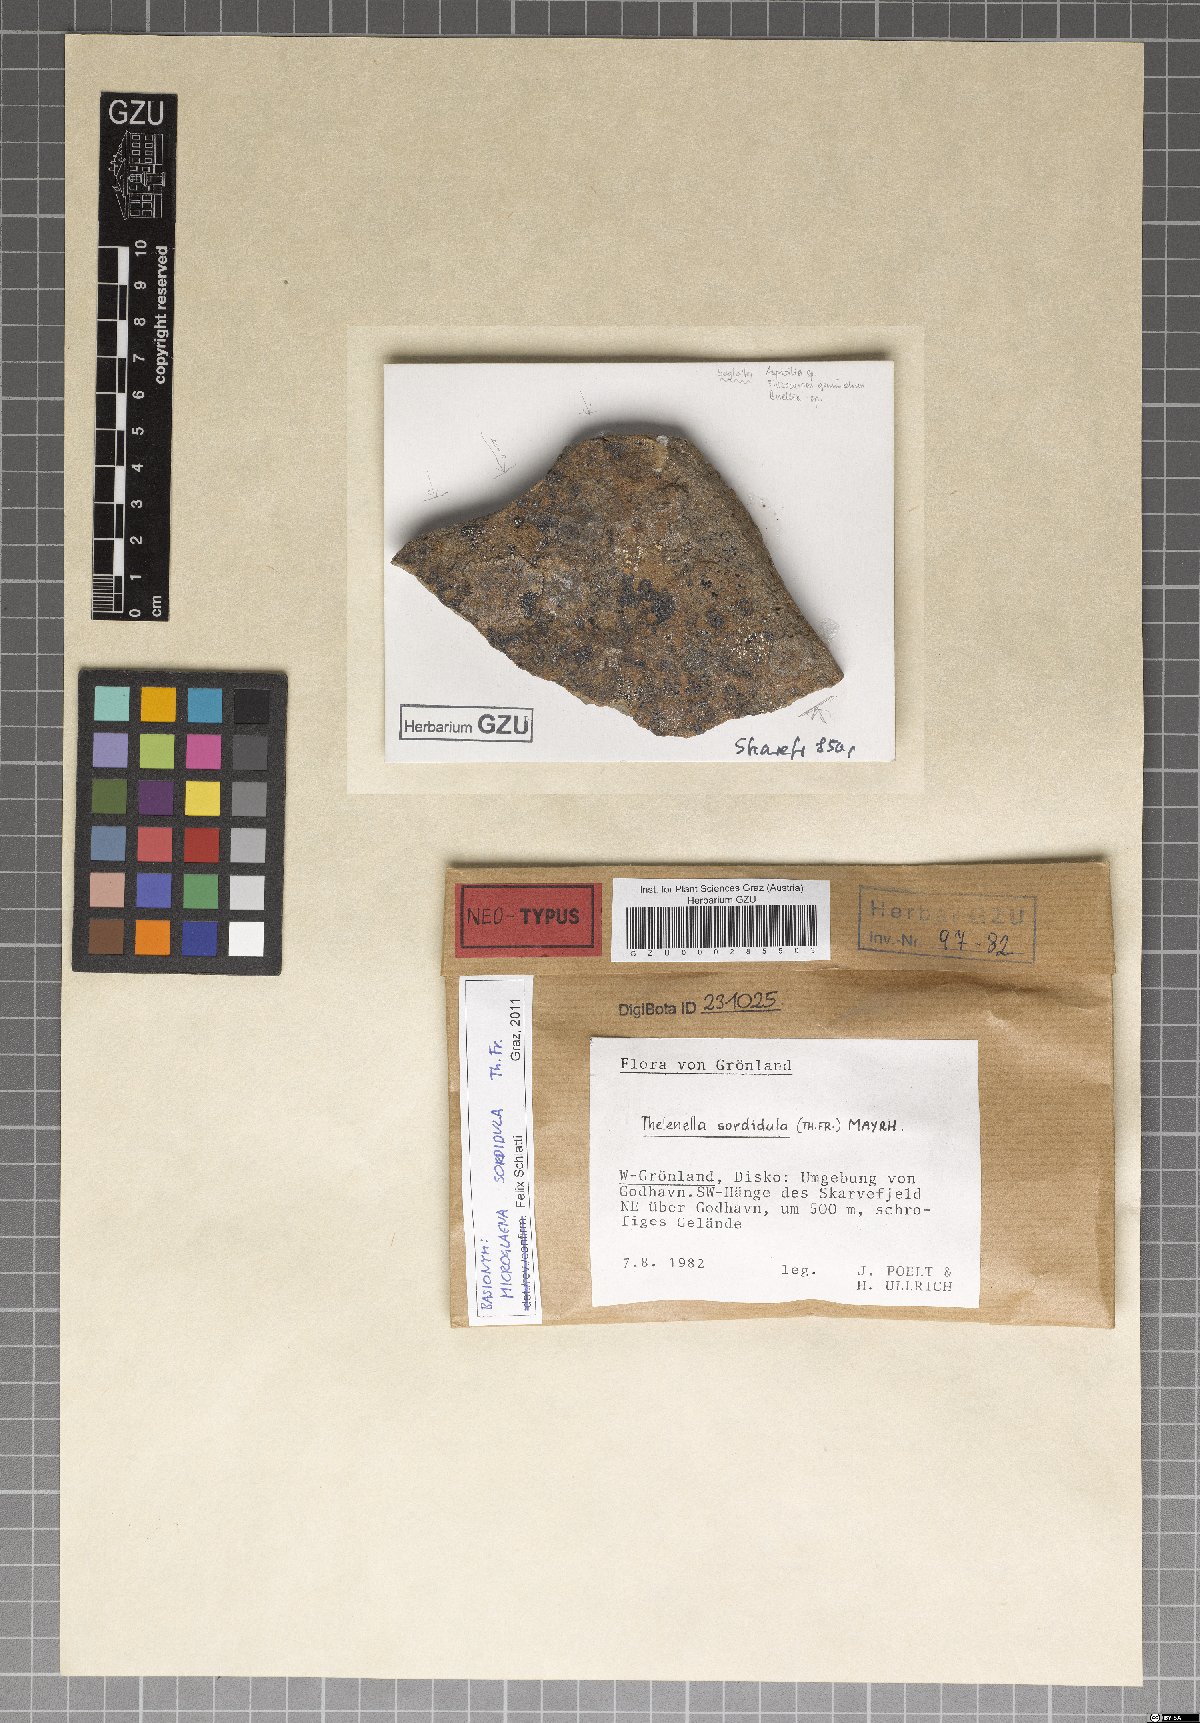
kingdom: Fungi
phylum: Ascomycota
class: Lecanoromycetes
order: Ostropales
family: Thelenellaceae
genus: Thelenella
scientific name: Thelenella sordidula
